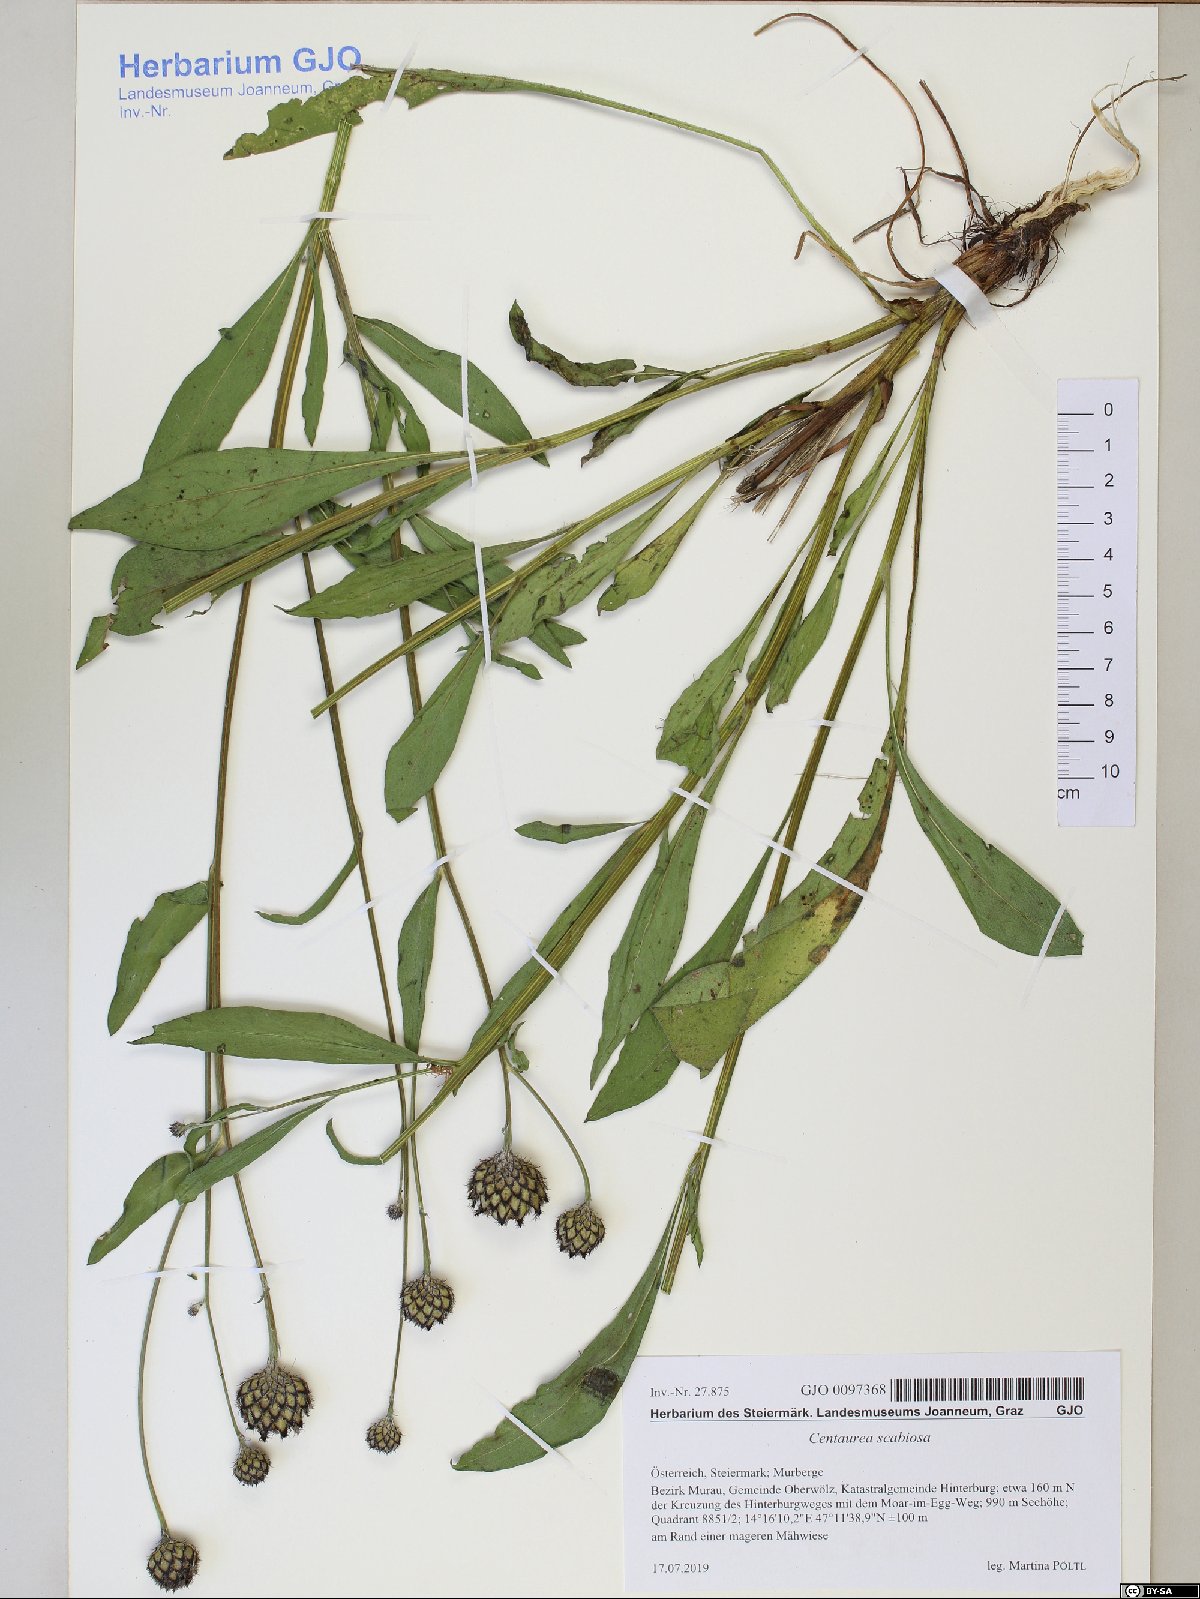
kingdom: Plantae
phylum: Tracheophyta
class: Magnoliopsida
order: Asterales
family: Asteraceae
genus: Centaurea
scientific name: Centaurea scabiosa
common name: Greater knapweed
